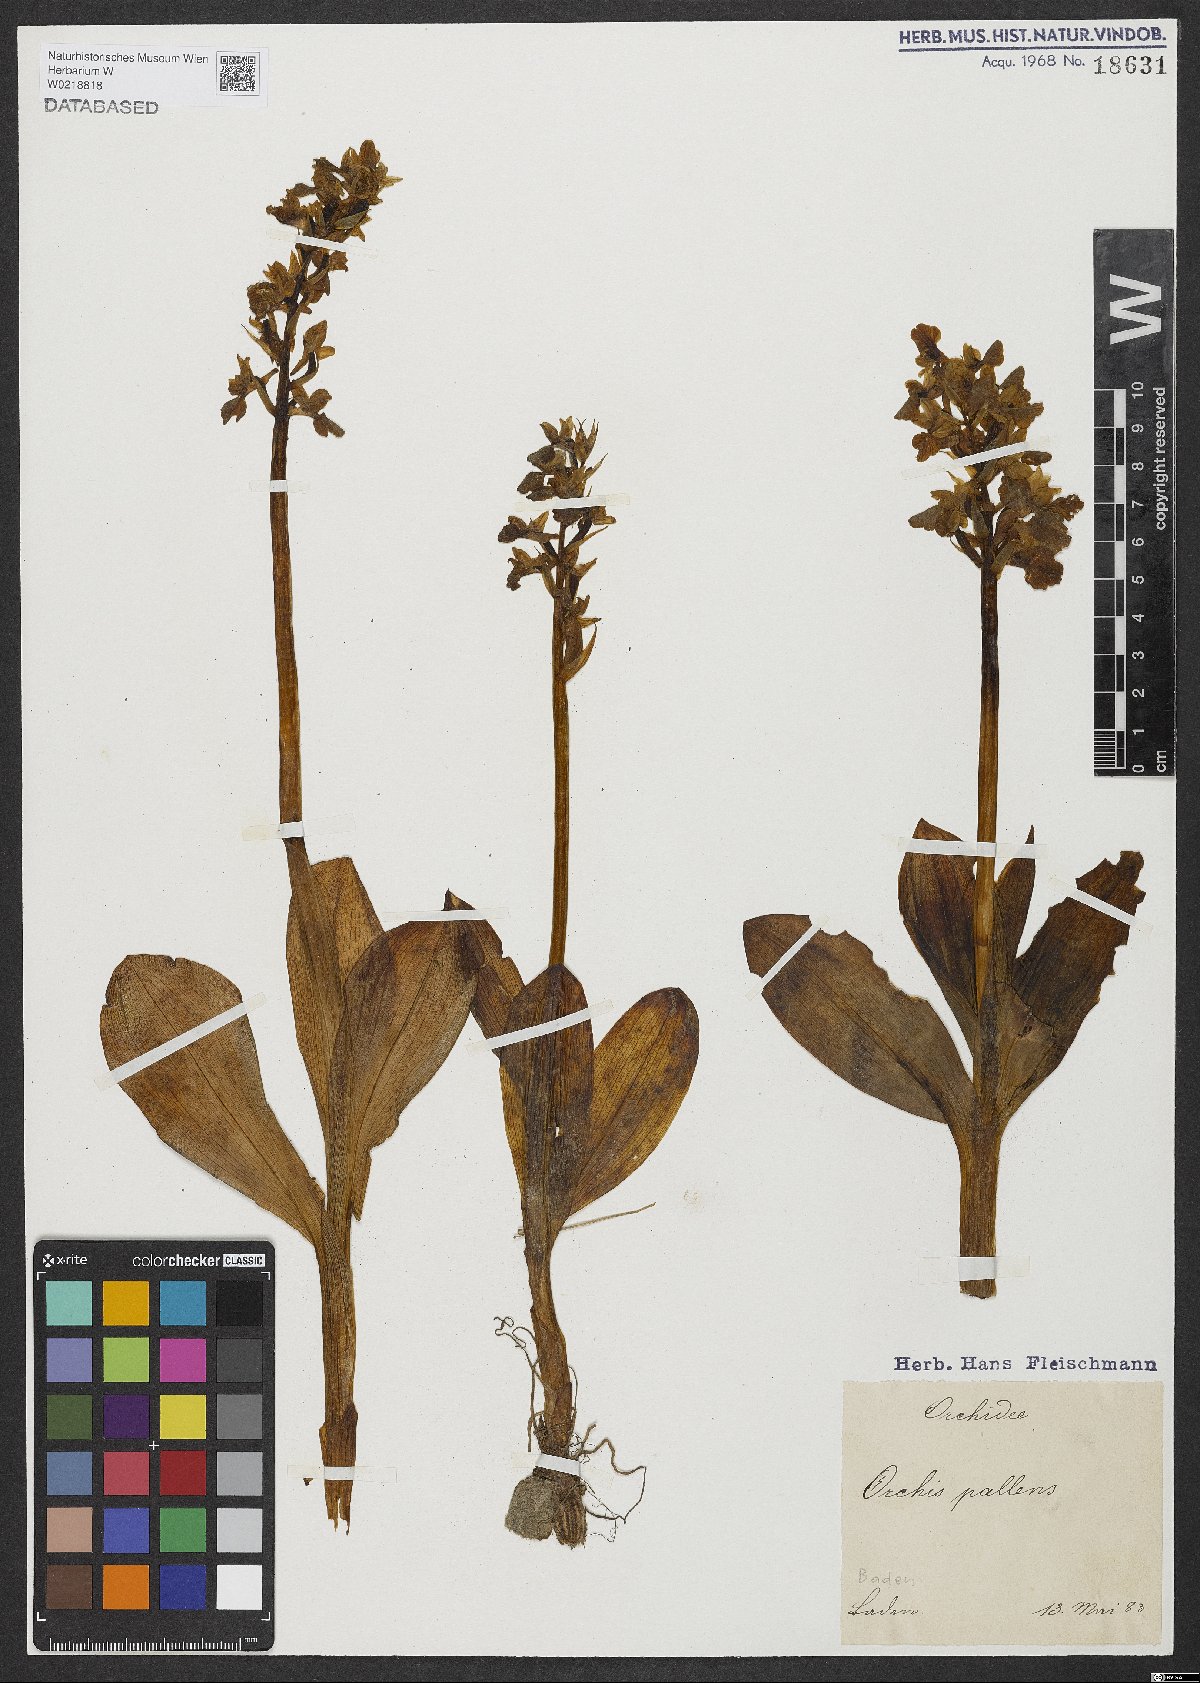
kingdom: Plantae
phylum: Tracheophyta
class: Liliopsida
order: Asparagales
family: Orchidaceae
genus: Orchis
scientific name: Orchis pallens
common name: Pale-flowered orchid
